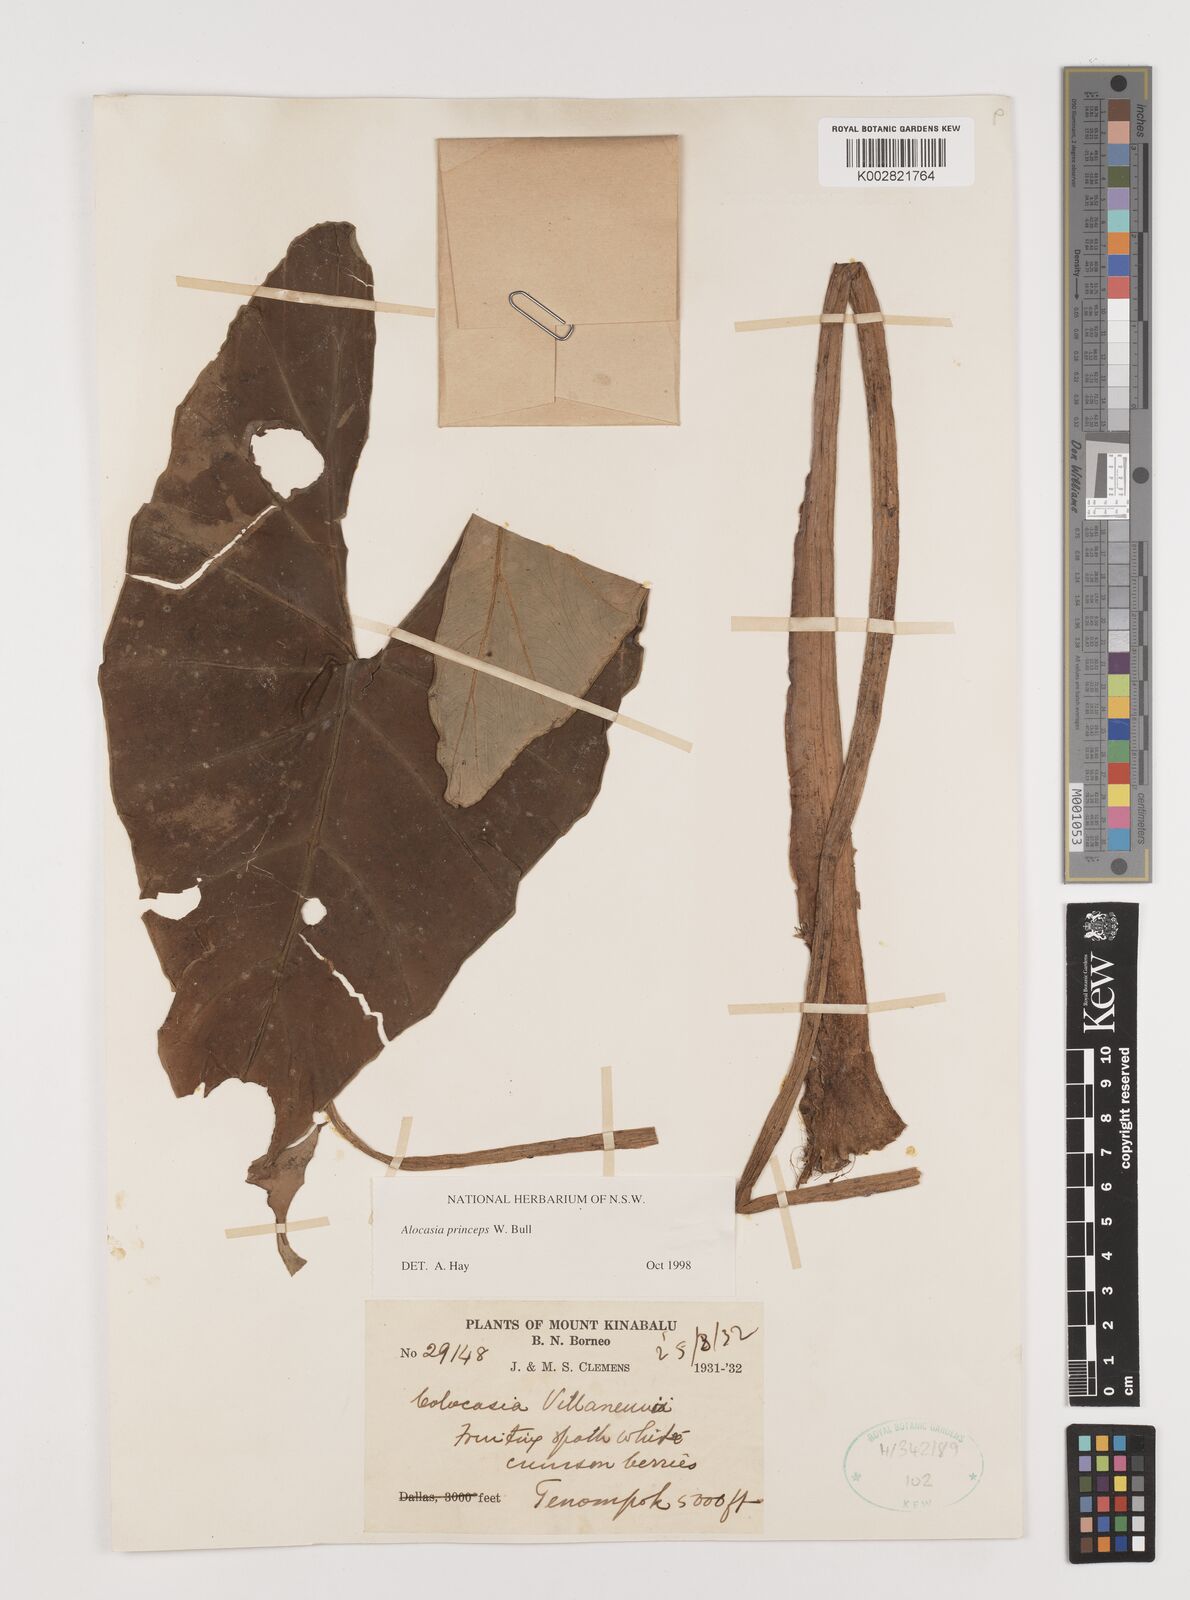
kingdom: Plantae
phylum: Tracheophyta
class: Liliopsida
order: Alismatales
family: Araceae
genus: Alocasia
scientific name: Alocasia princeps
